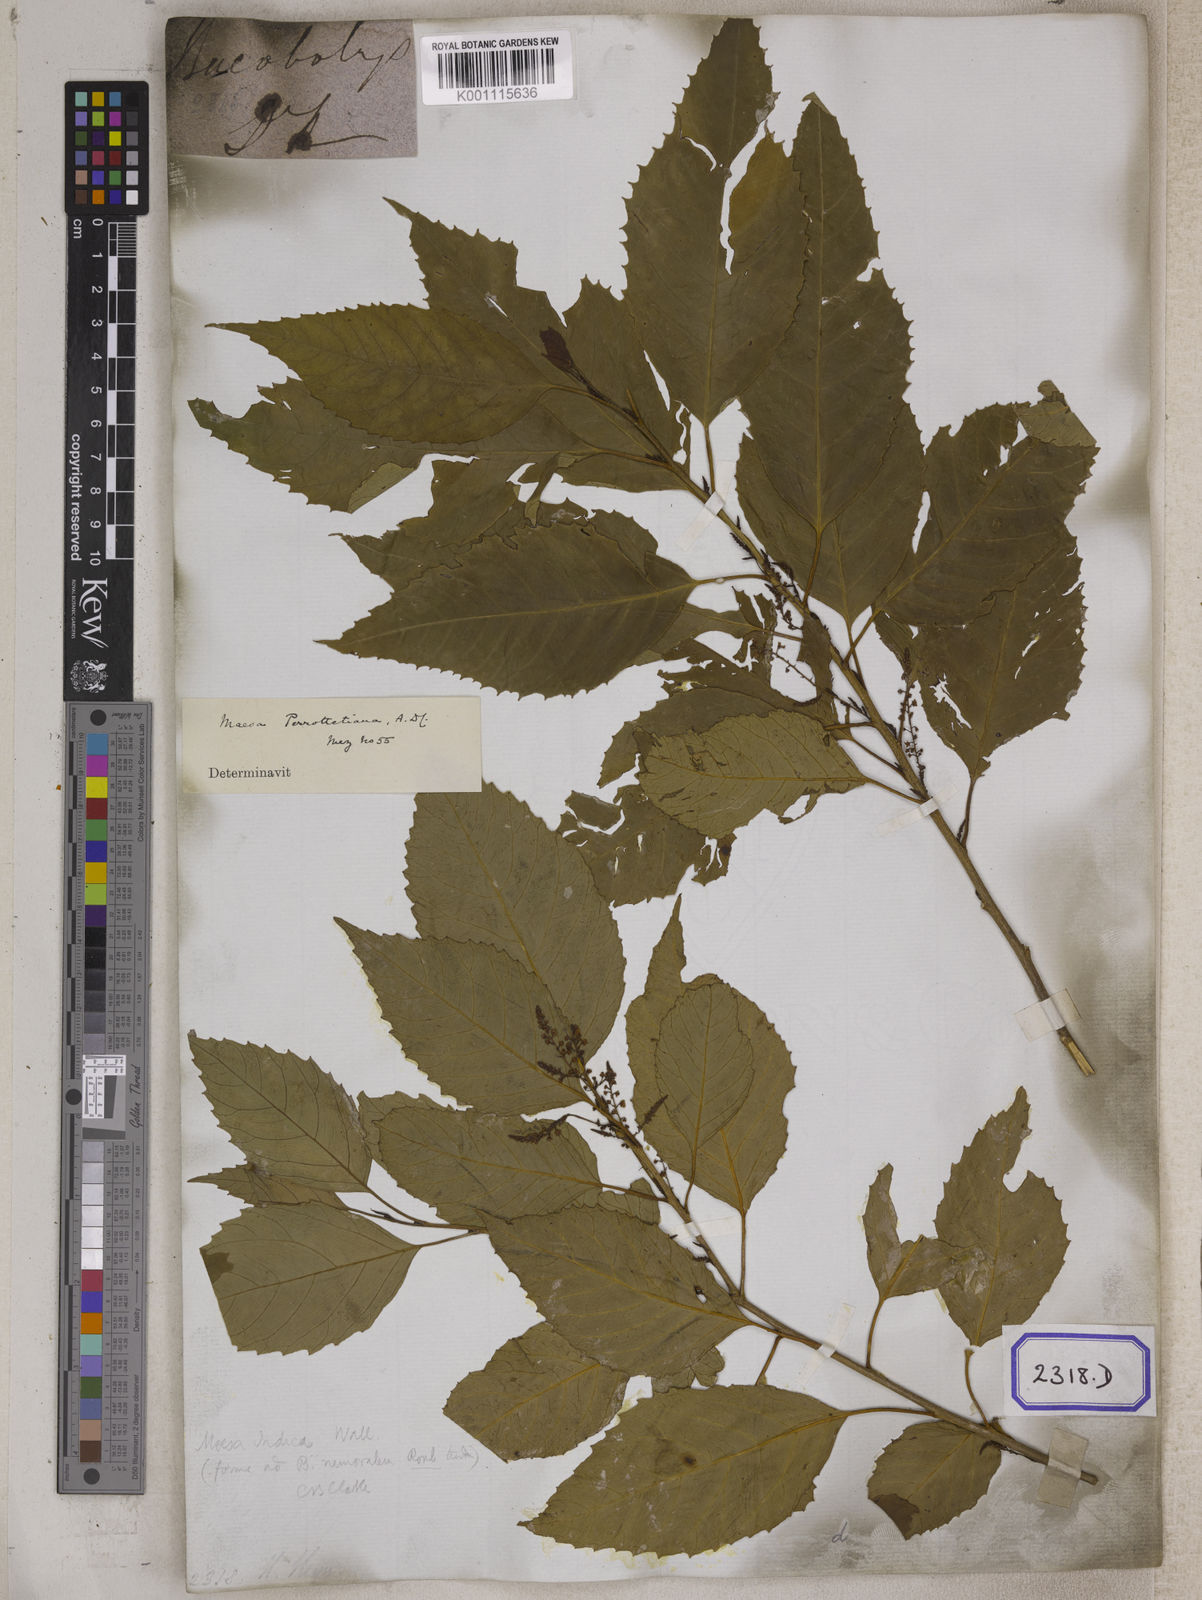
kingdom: Plantae
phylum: Tracheophyta
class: Magnoliopsida
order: Ericales
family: Primulaceae
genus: Maesa
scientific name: Maesa indica
